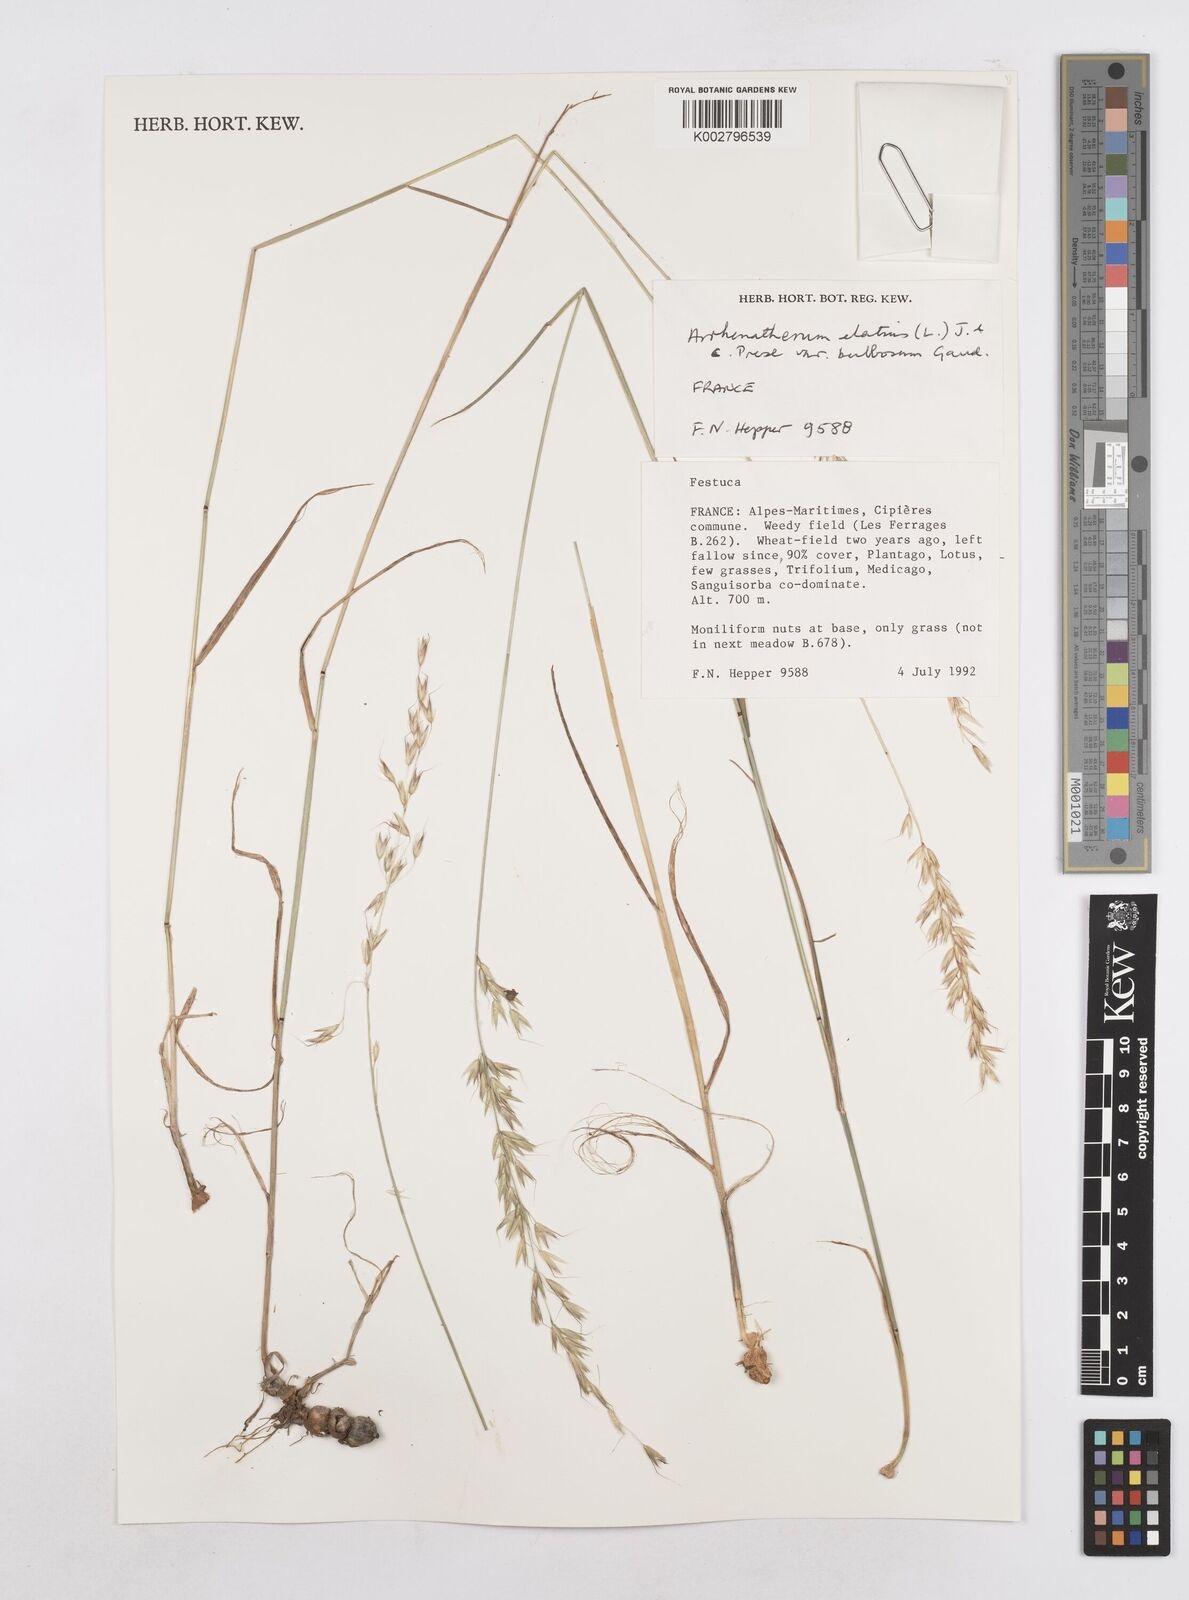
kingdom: Plantae
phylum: Tracheophyta
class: Liliopsida
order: Poales
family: Poaceae
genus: Arrhenatherum
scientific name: Arrhenatherum elatius
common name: Tall oatgrass
